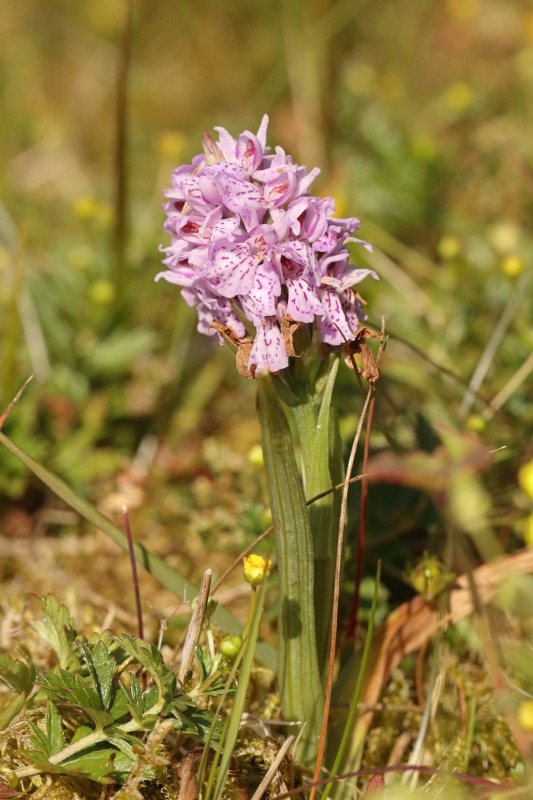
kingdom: Plantae
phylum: Tracheophyta
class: Liliopsida
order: Asparagales
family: Orchidaceae
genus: Dactylorhiza
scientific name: Dactylorhiza maculata
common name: Plettet gøgeurt
